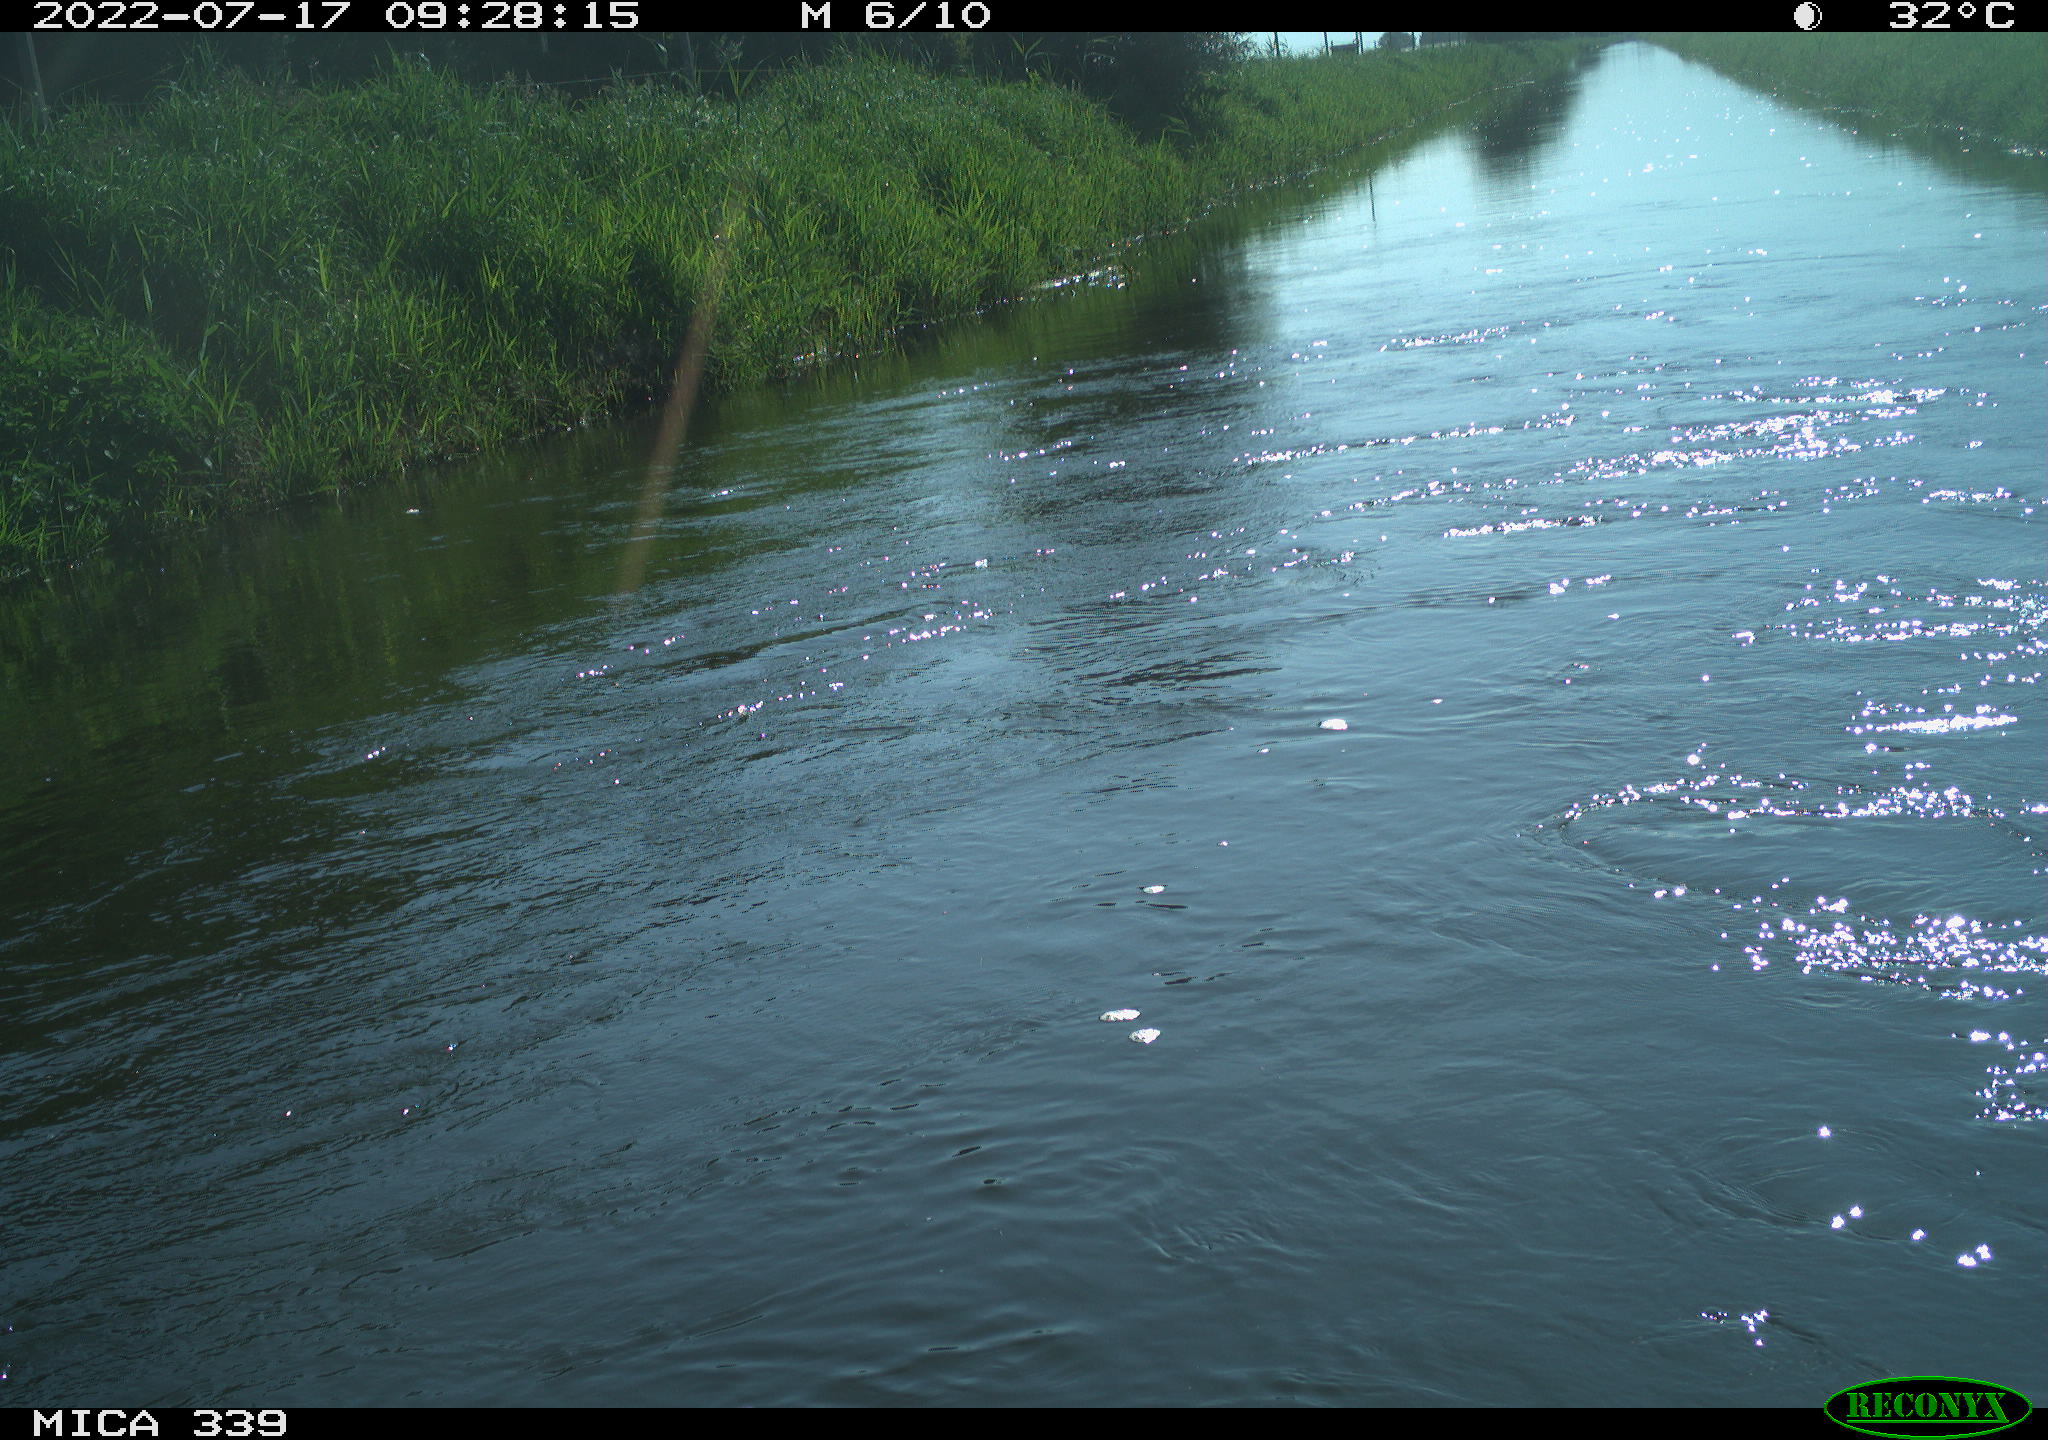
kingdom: Animalia
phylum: Chordata
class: Aves
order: Pelecaniformes
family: Ardeidae
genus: Ardea
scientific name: Ardea
